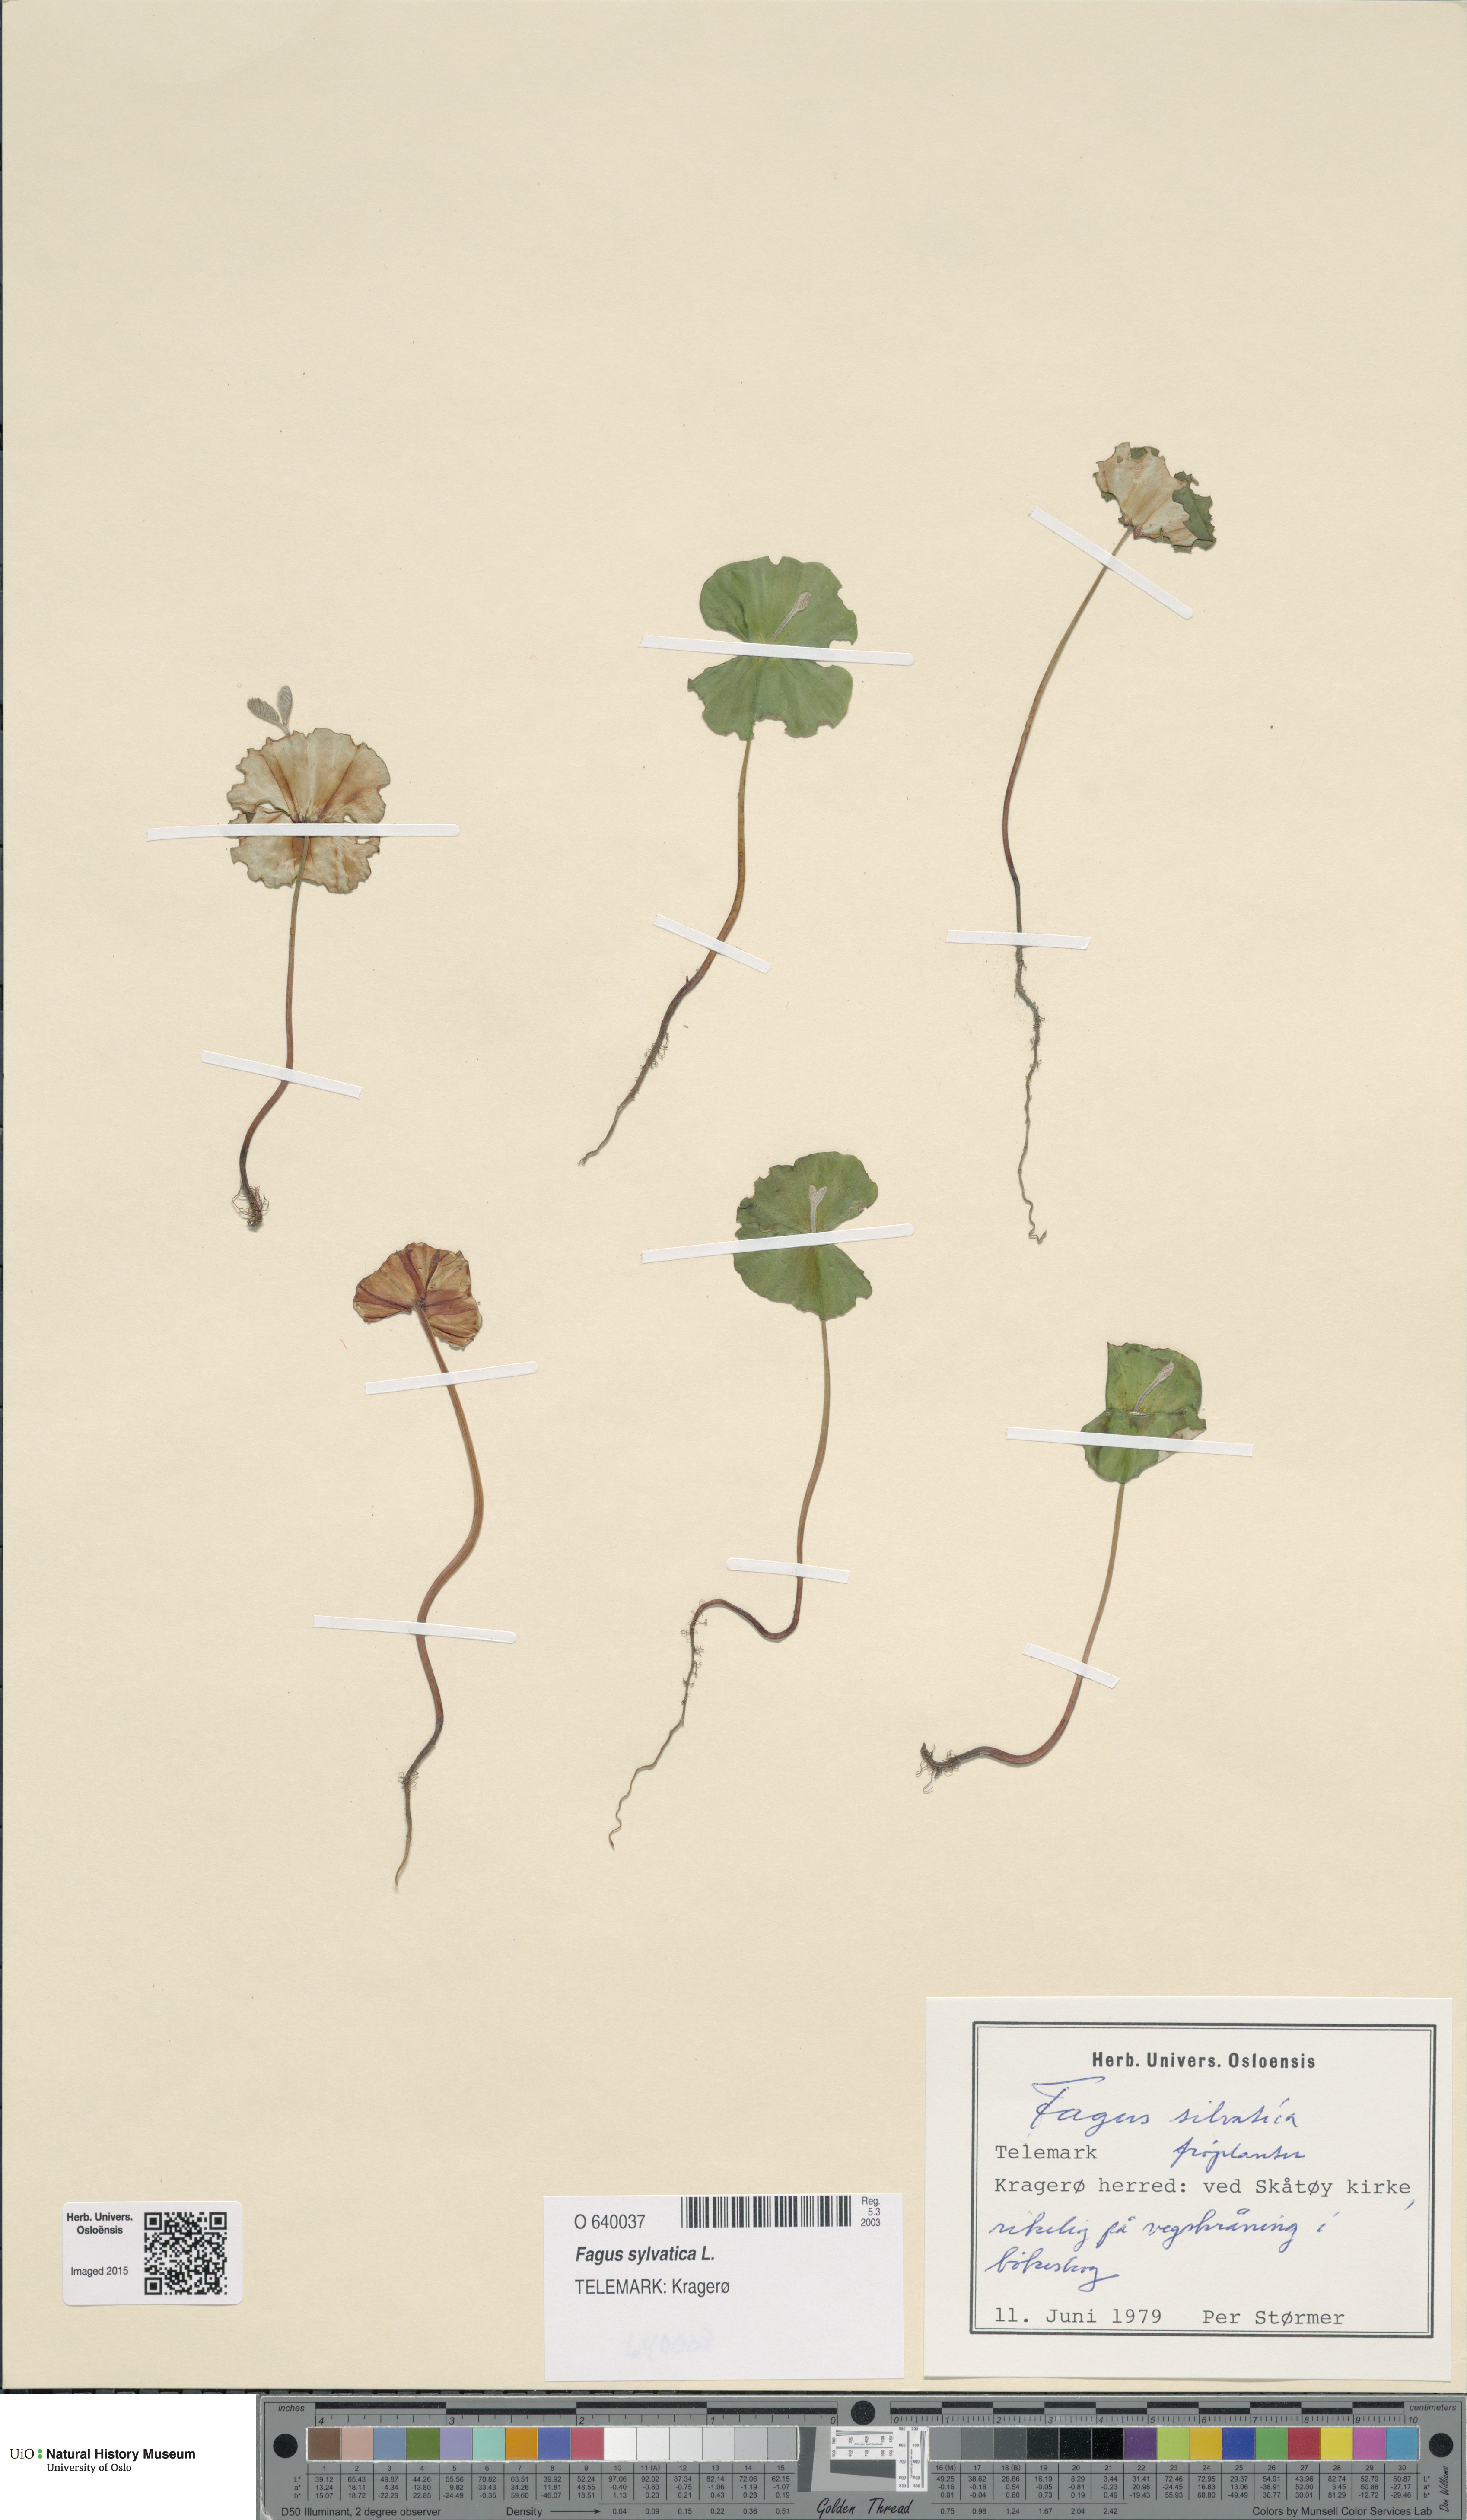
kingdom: Plantae
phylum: Tracheophyta
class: Magnoliopsida
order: Fagales
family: Fagaceae
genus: Fagus
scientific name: Fagus sylvatica
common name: Beech
